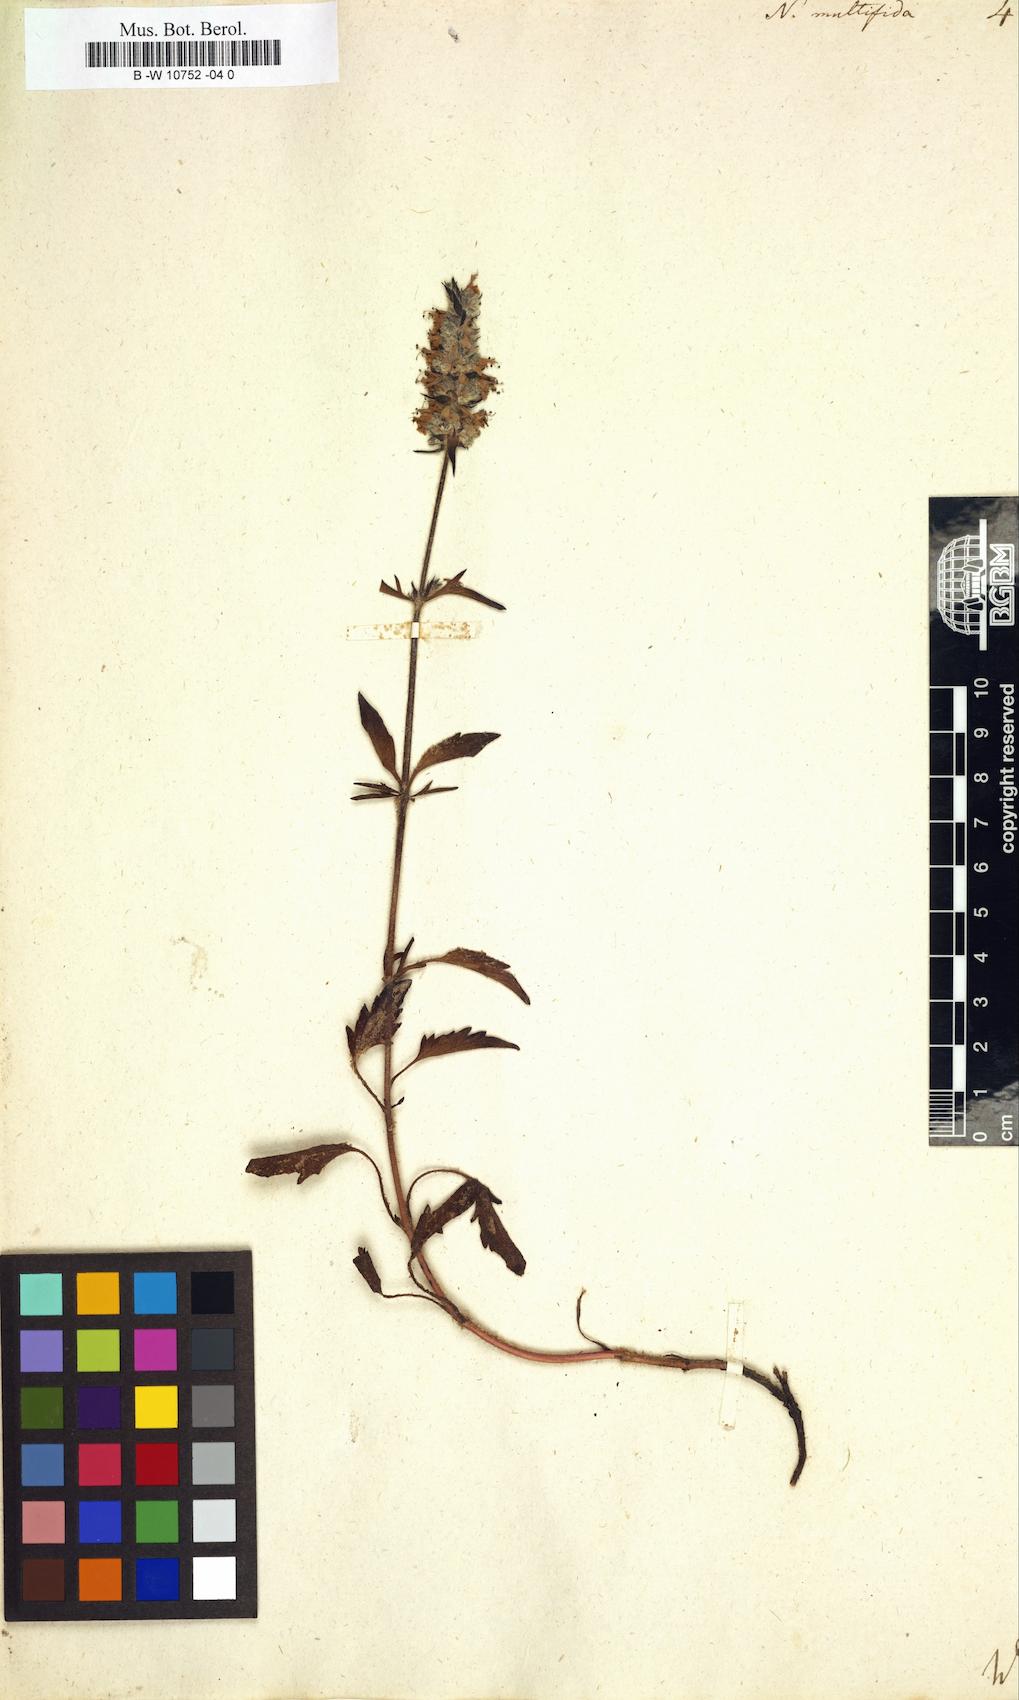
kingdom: Plantae
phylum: Tracheophyta
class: Magnoliopsida
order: Lamiales
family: Lamiaceae
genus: Nepeta
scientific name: Nepeta multifida
